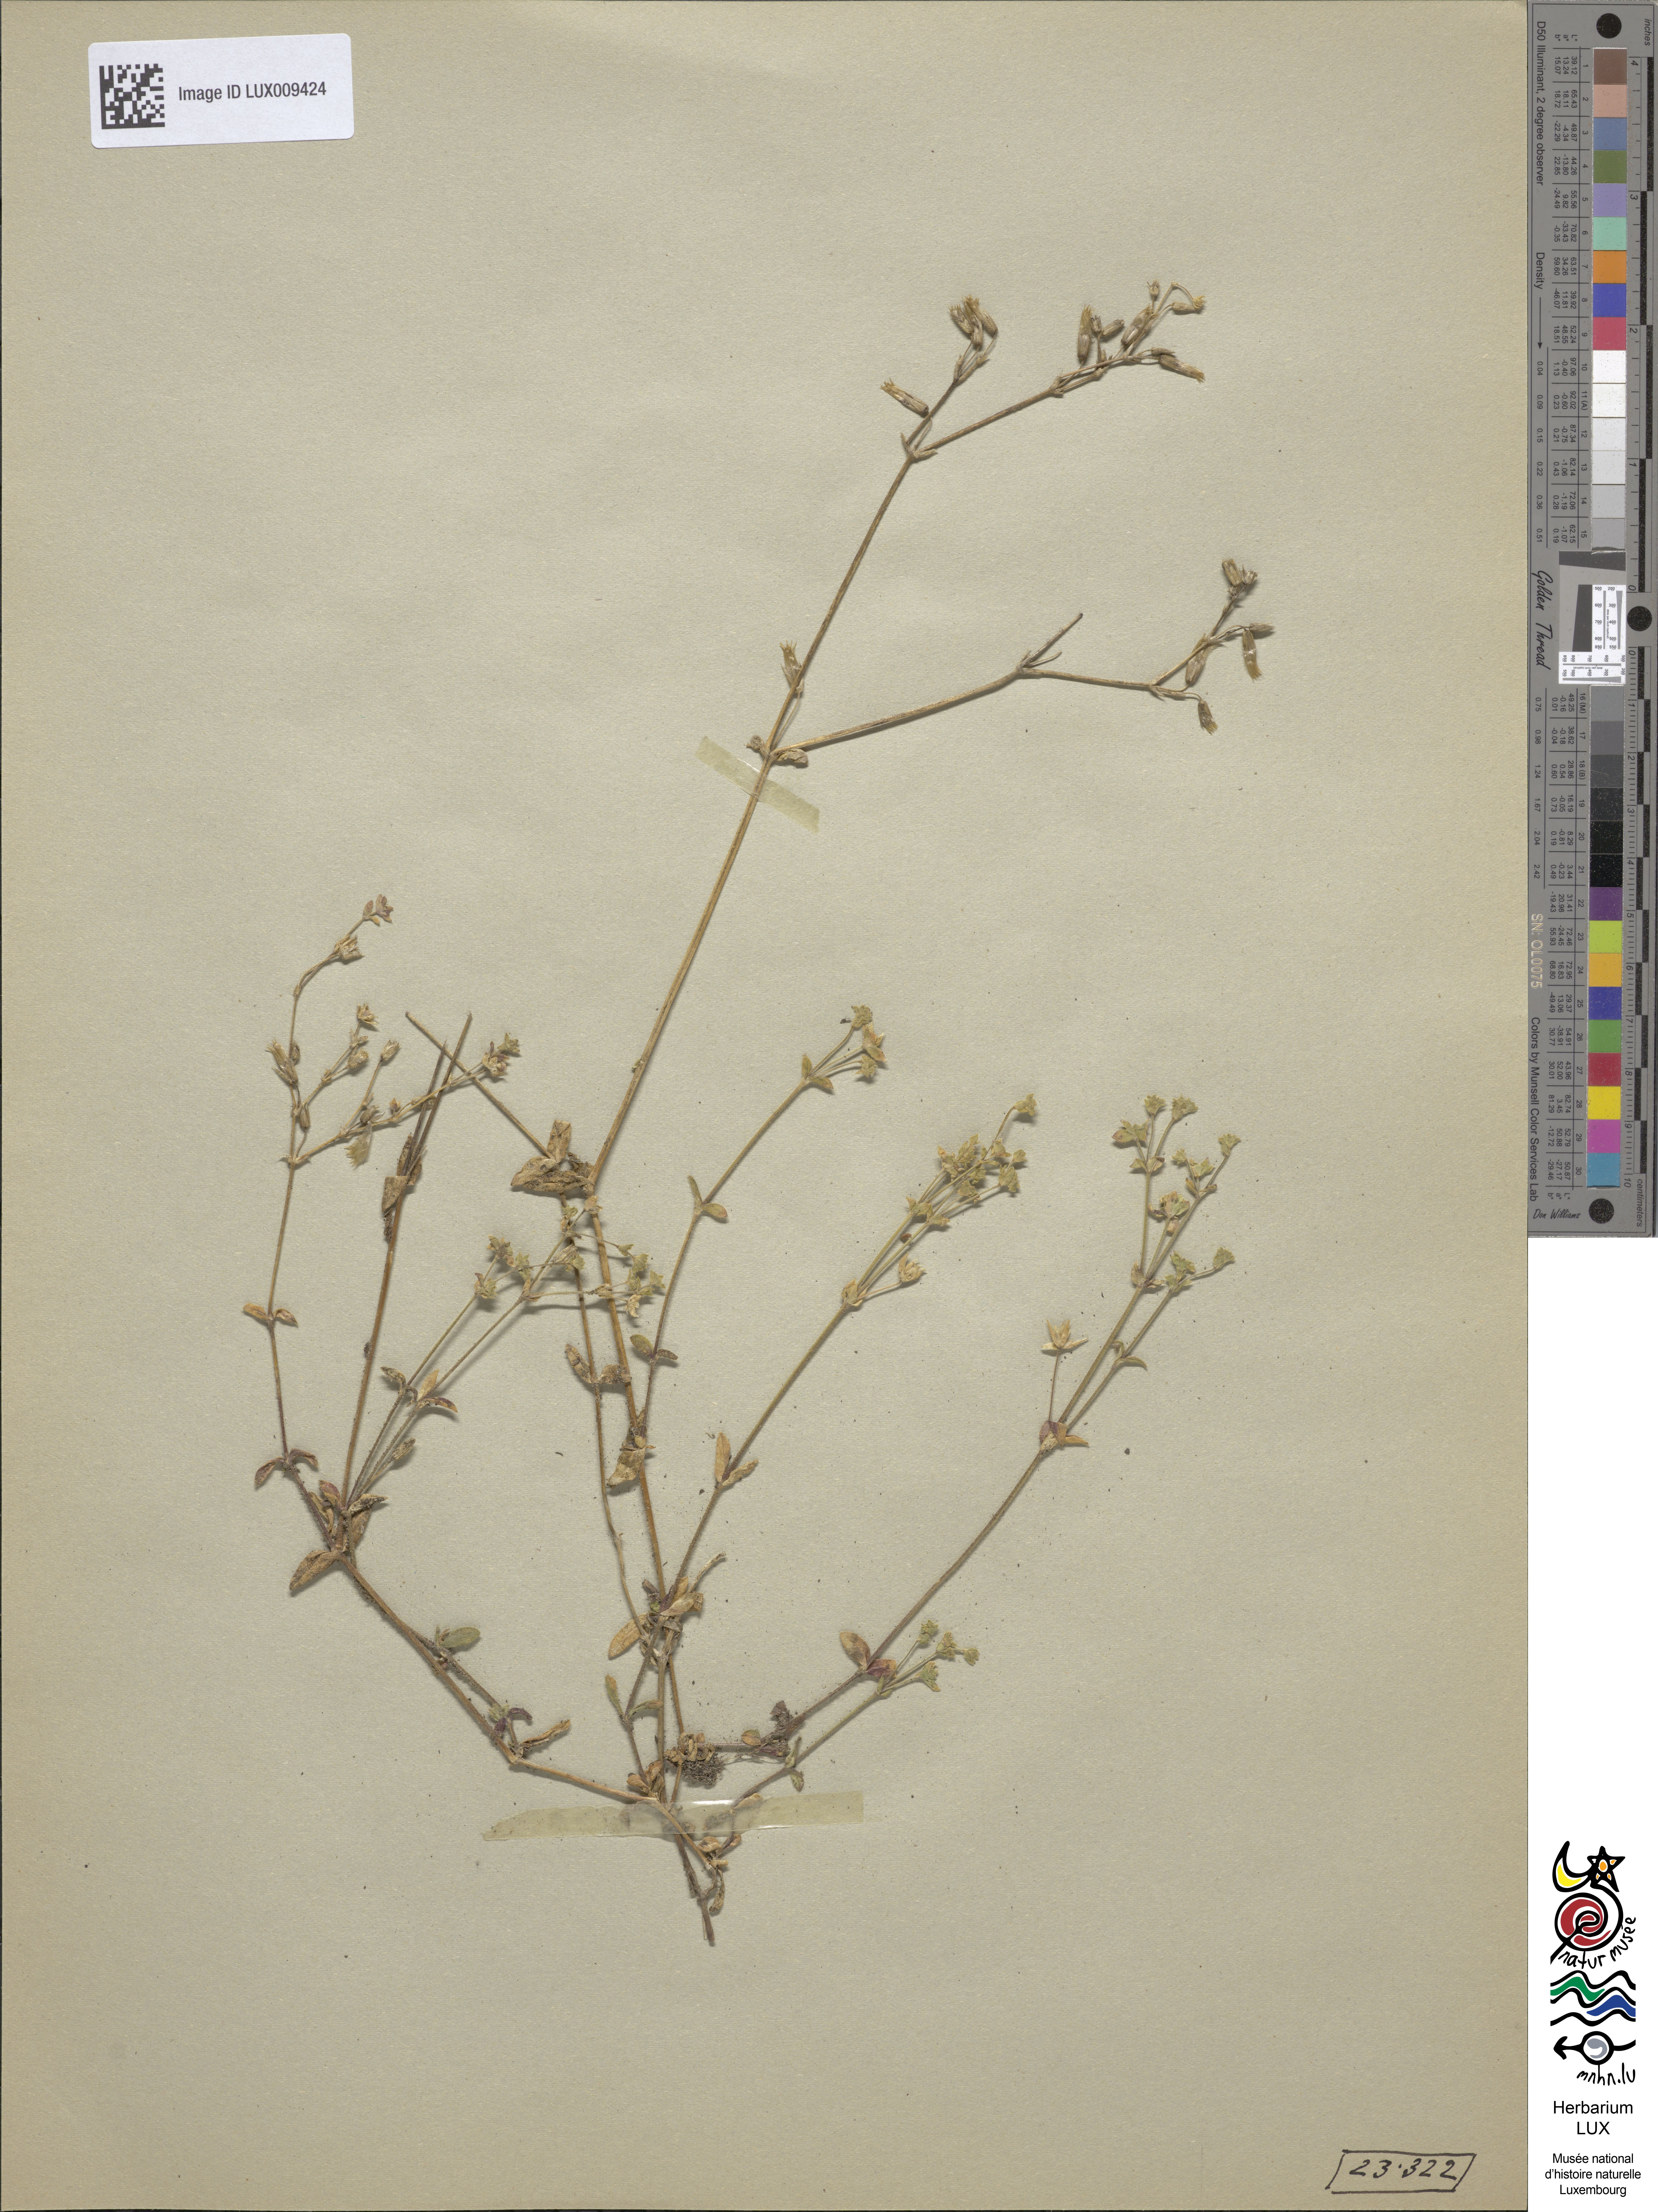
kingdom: Plantae
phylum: Tracheophyta
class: Magnoliopsida
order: Caryophyllales
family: Caryophyllaceae
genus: Cerastium
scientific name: Cerastium holosteoides
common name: Big chickweed
